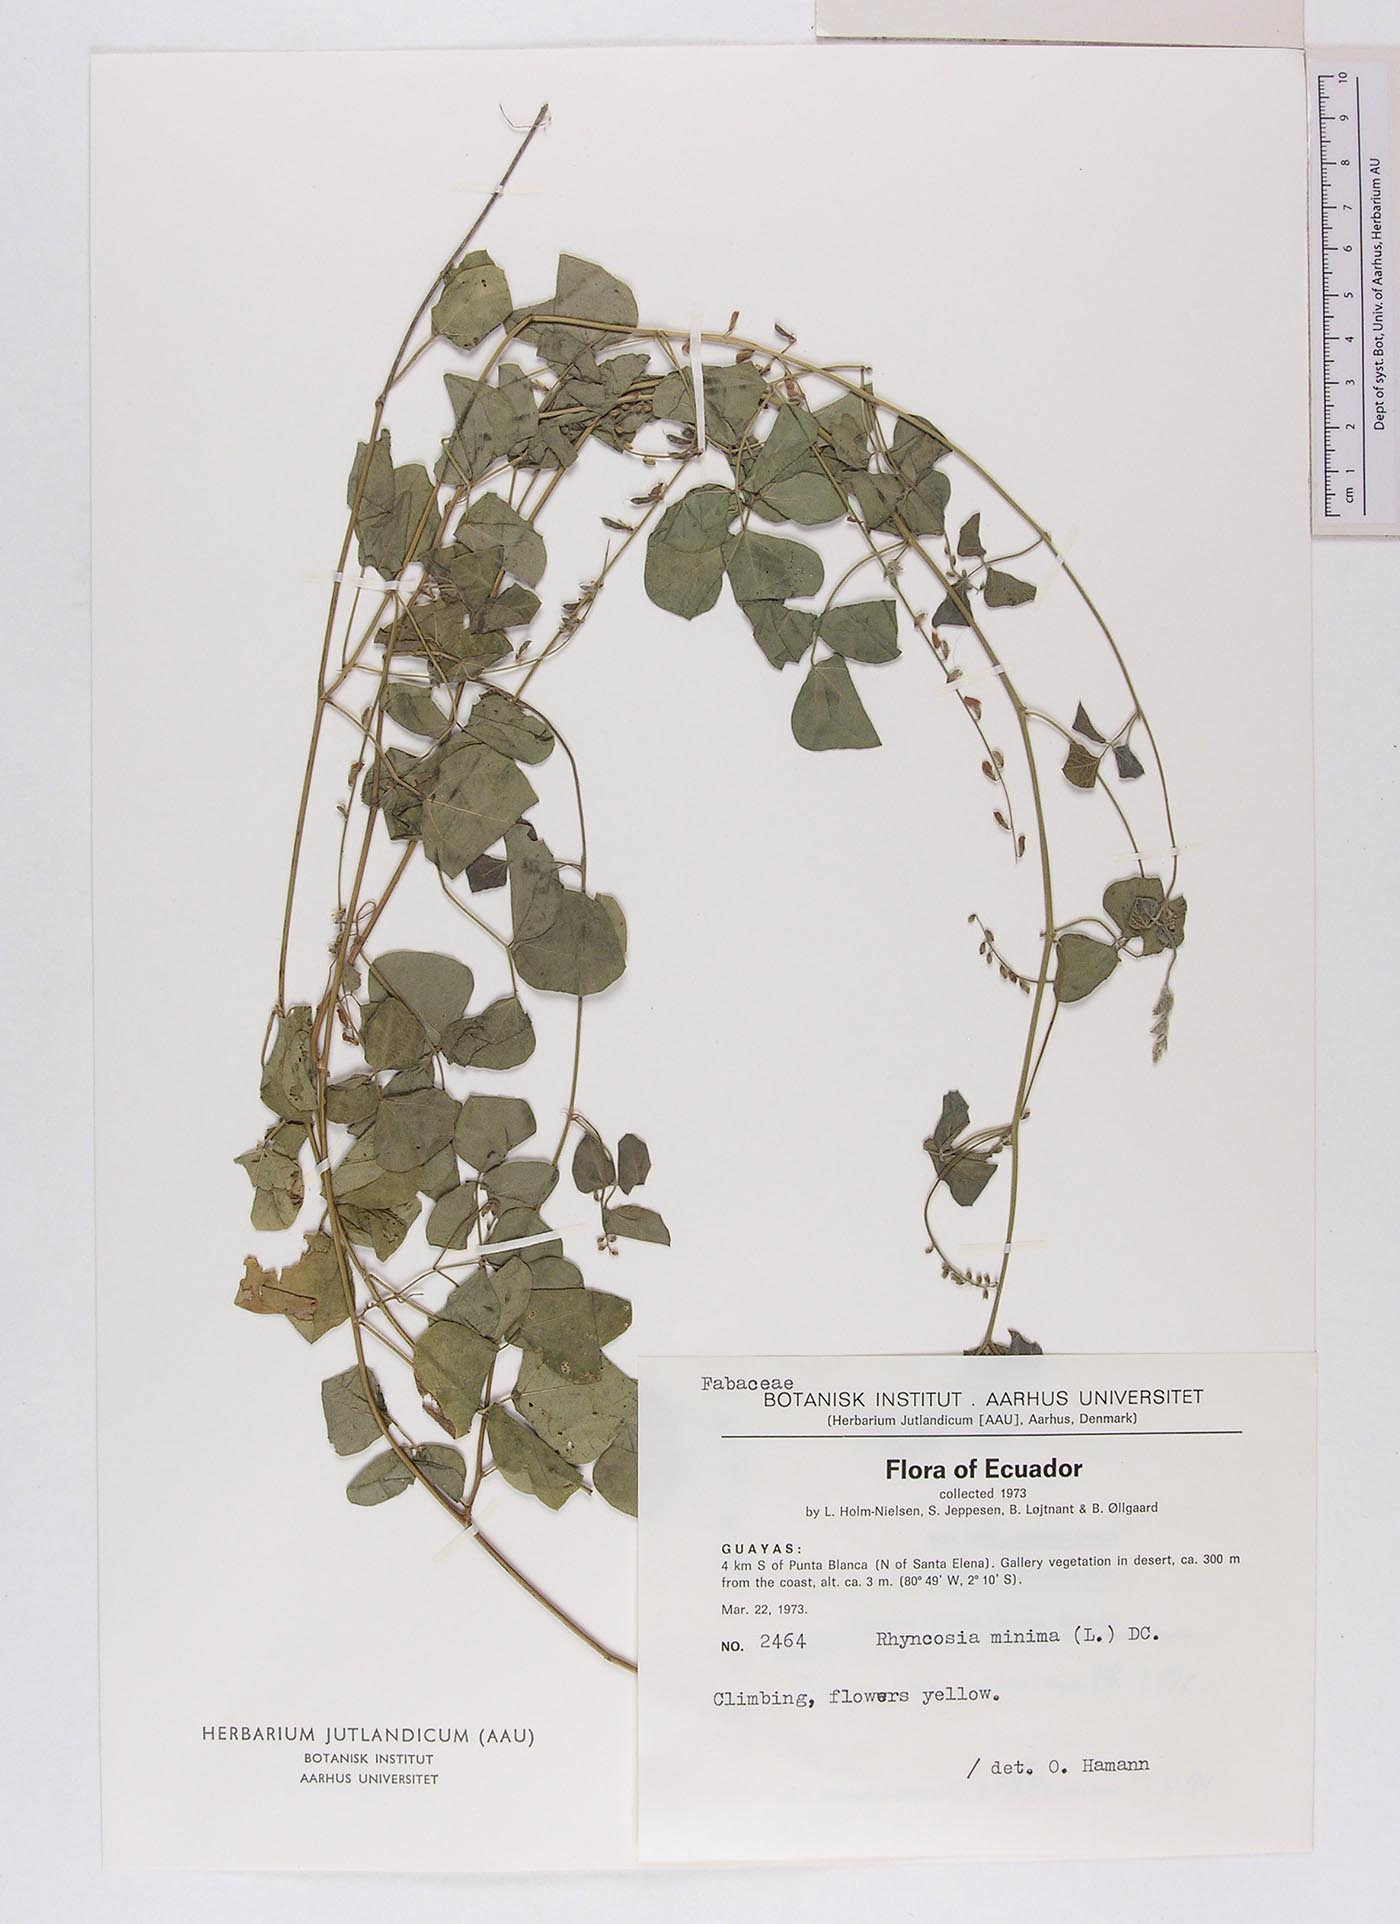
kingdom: Plantae
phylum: Tracheophyta
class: Magnoliopsida
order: Fabales
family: Fabaceae
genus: Rhynchosia
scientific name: Rhynchosia minima
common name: Least snoutbean
